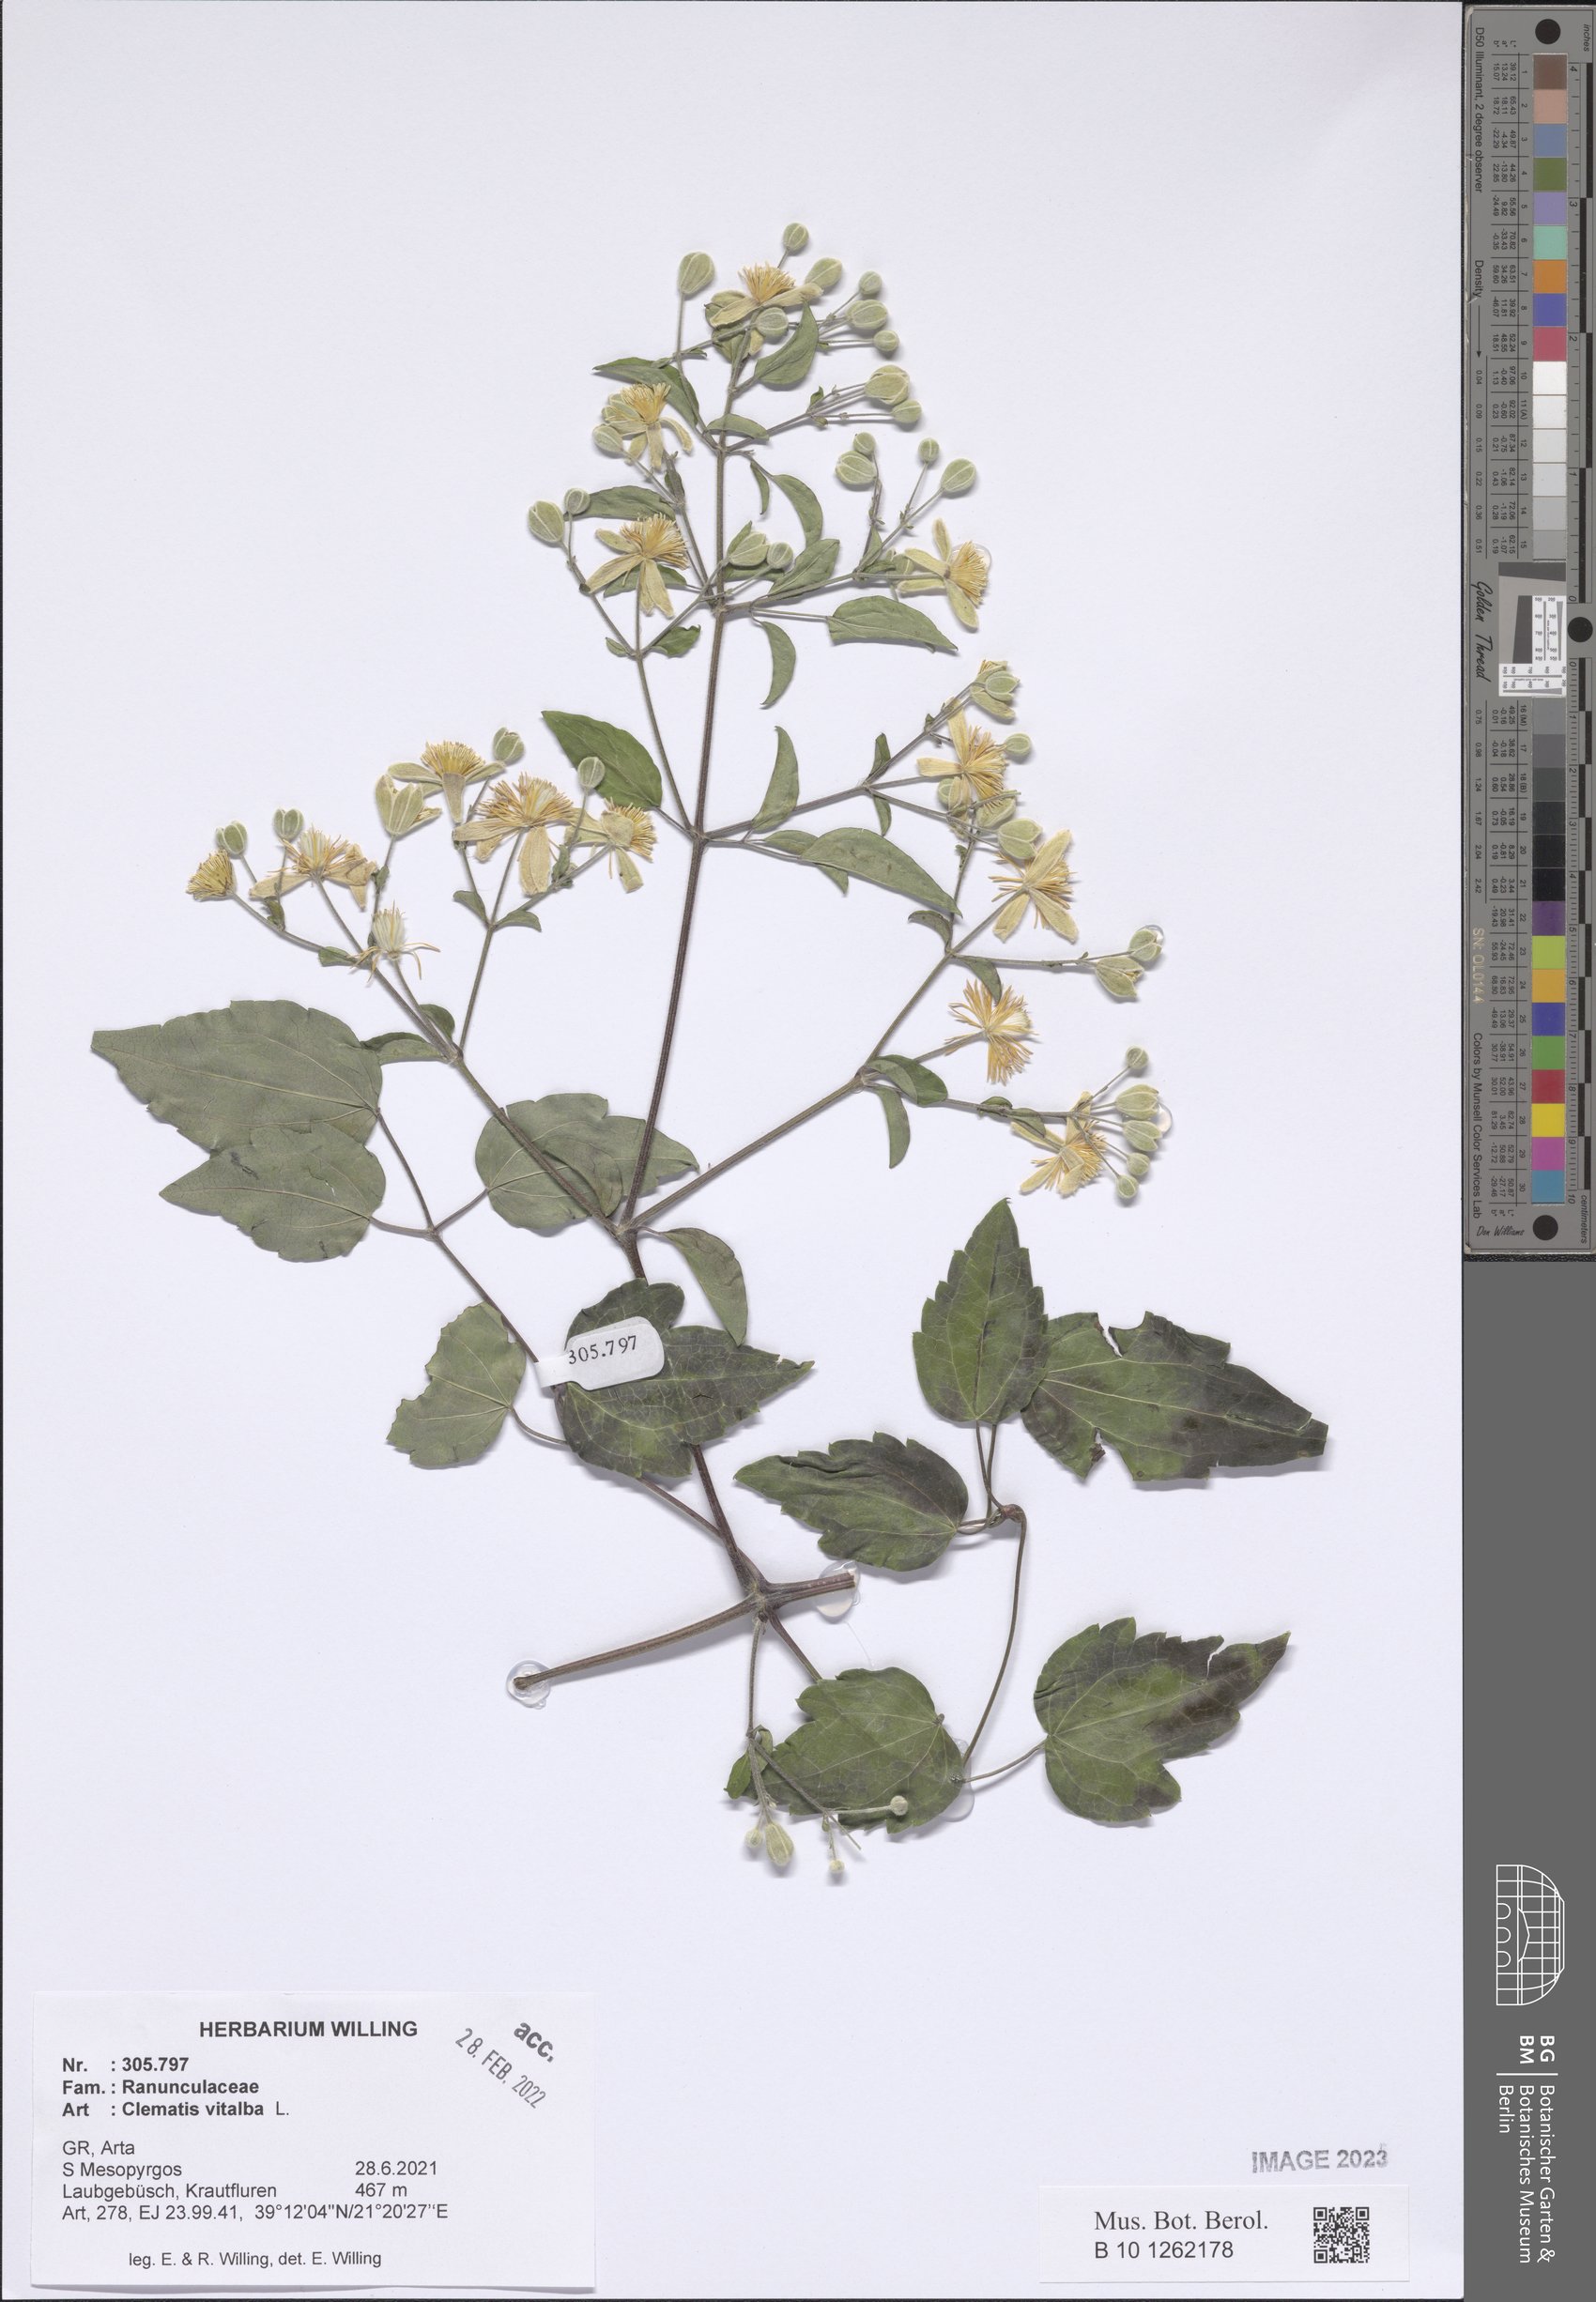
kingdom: Plantae
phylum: Tracheophyta
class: Magnoliopsida
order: Ranunculales
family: Ranunculaceae
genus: Clematis
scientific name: Clematis vitalba
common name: Evergreen clematis
